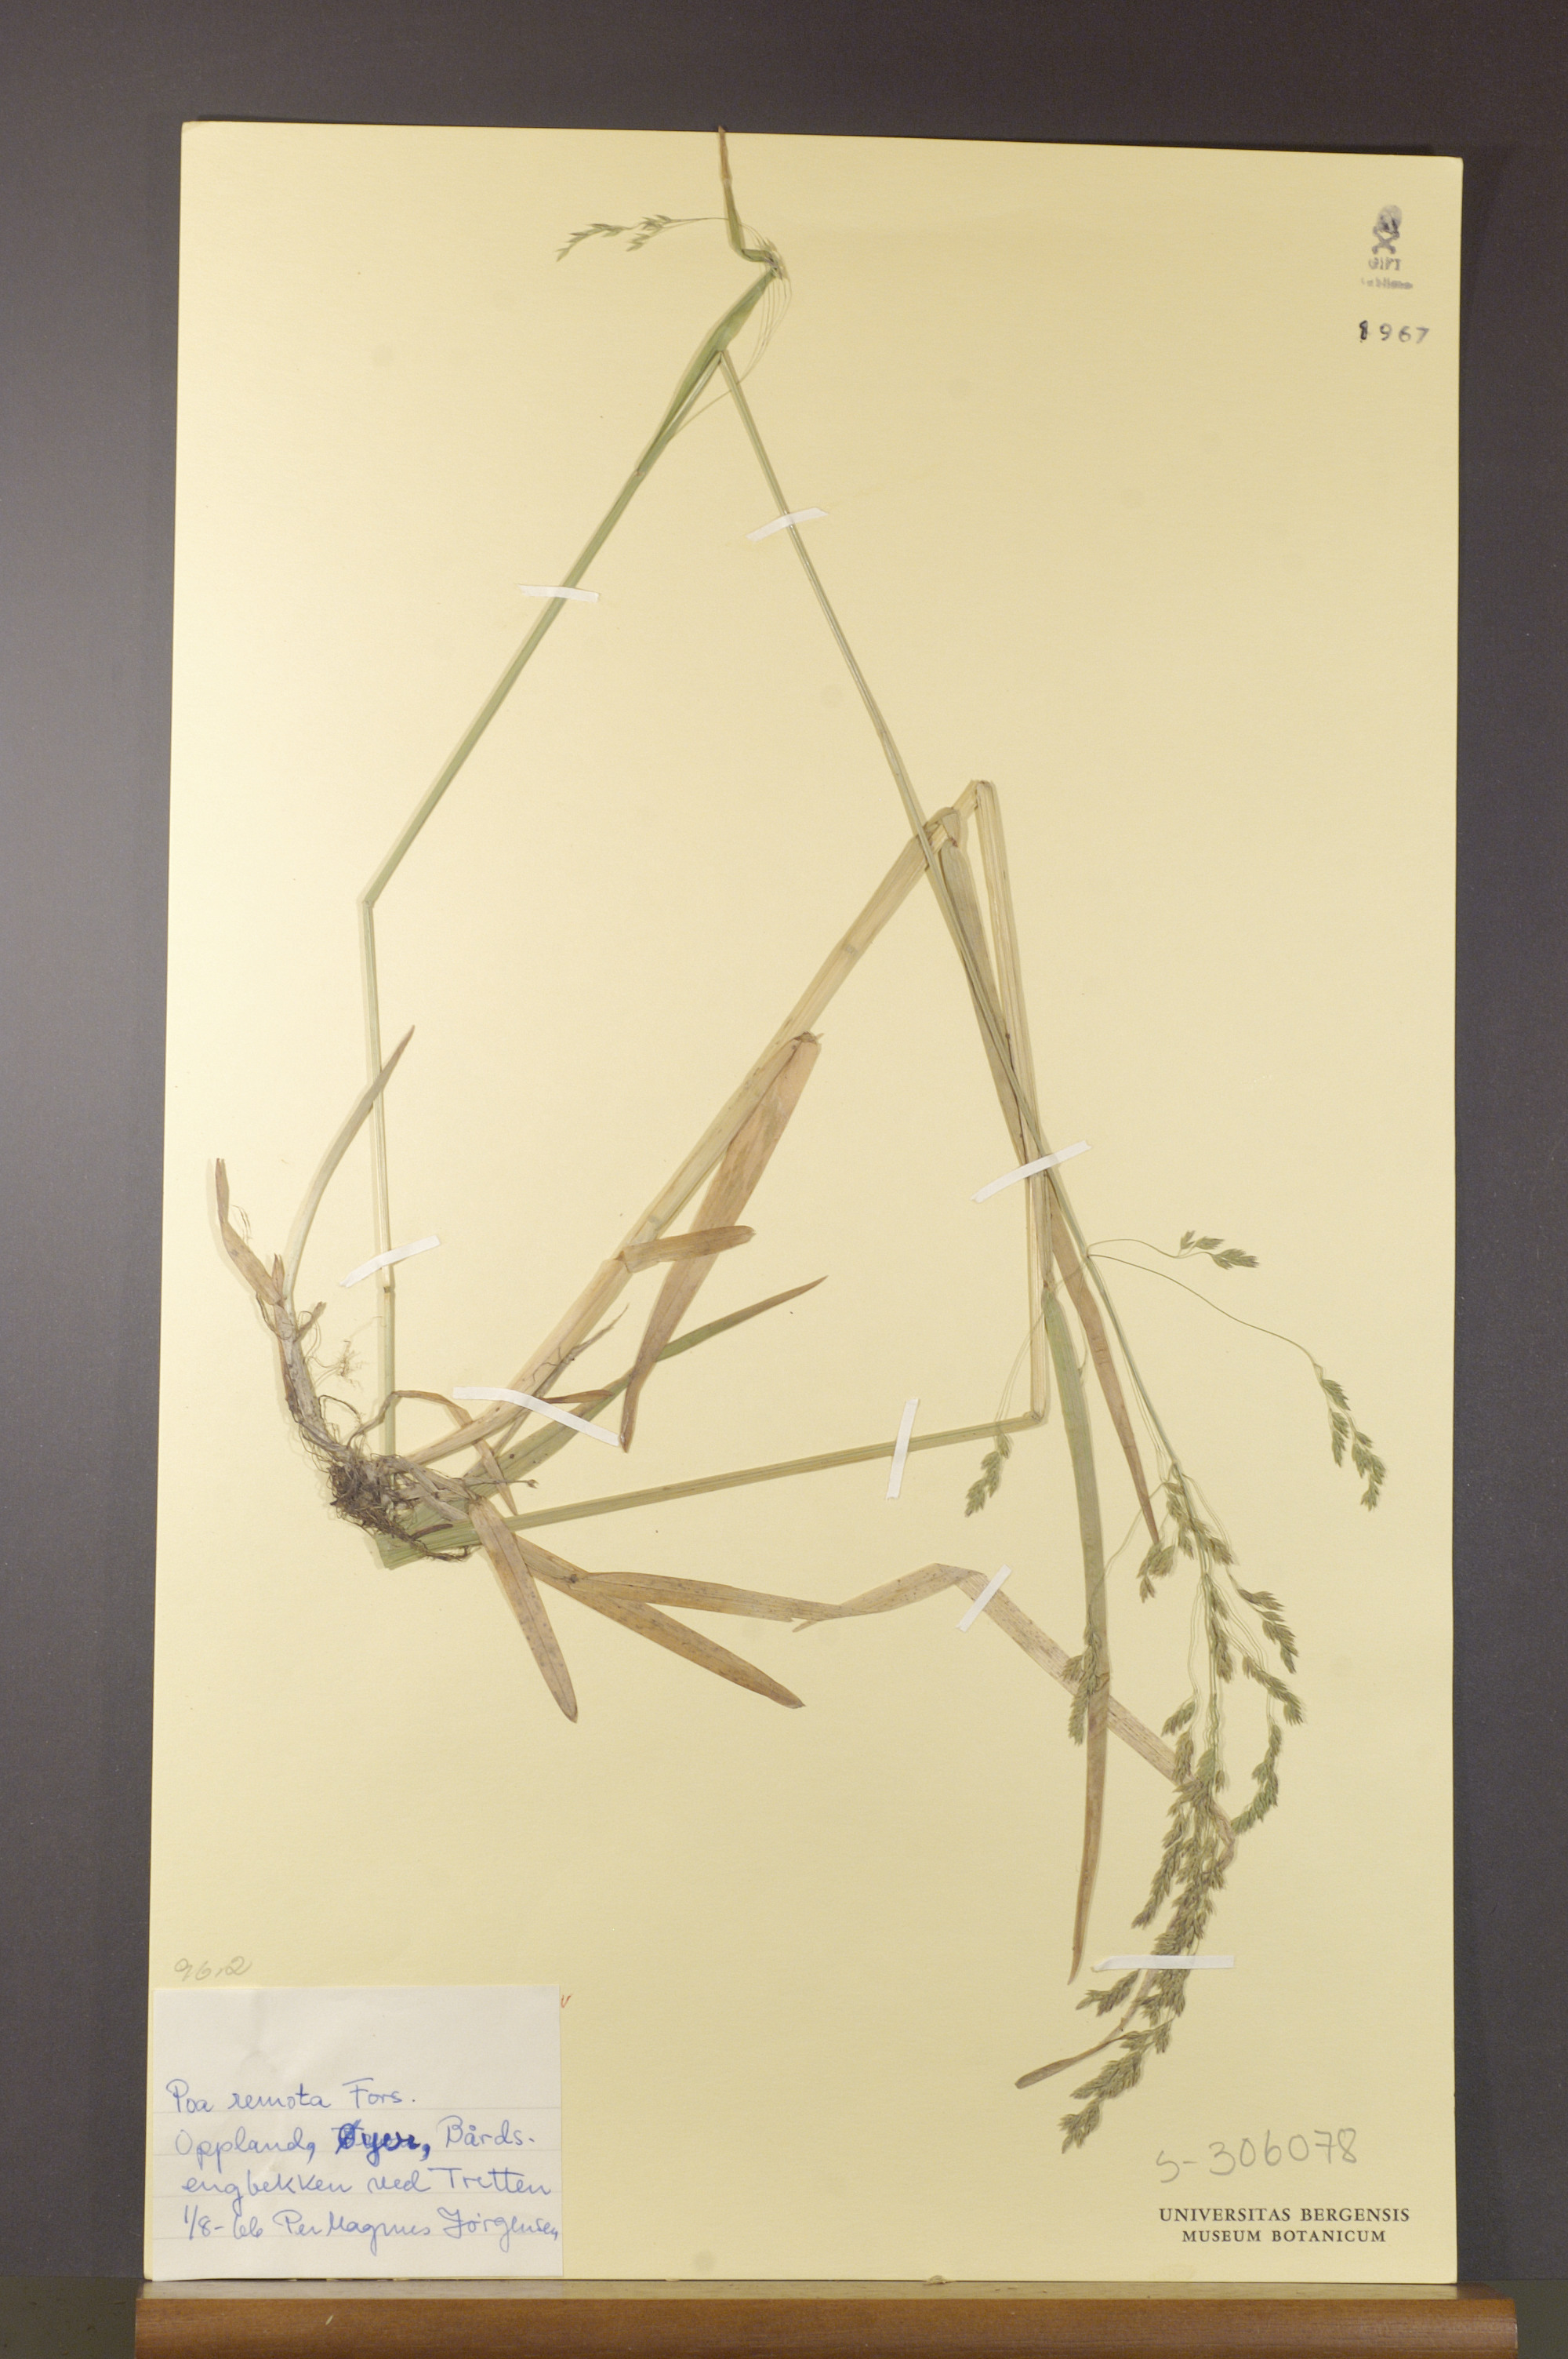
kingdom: Plantae
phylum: Tracheophyta
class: Liliopsida
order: Poales
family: Poaceae
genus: Poa
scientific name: Poa remota
